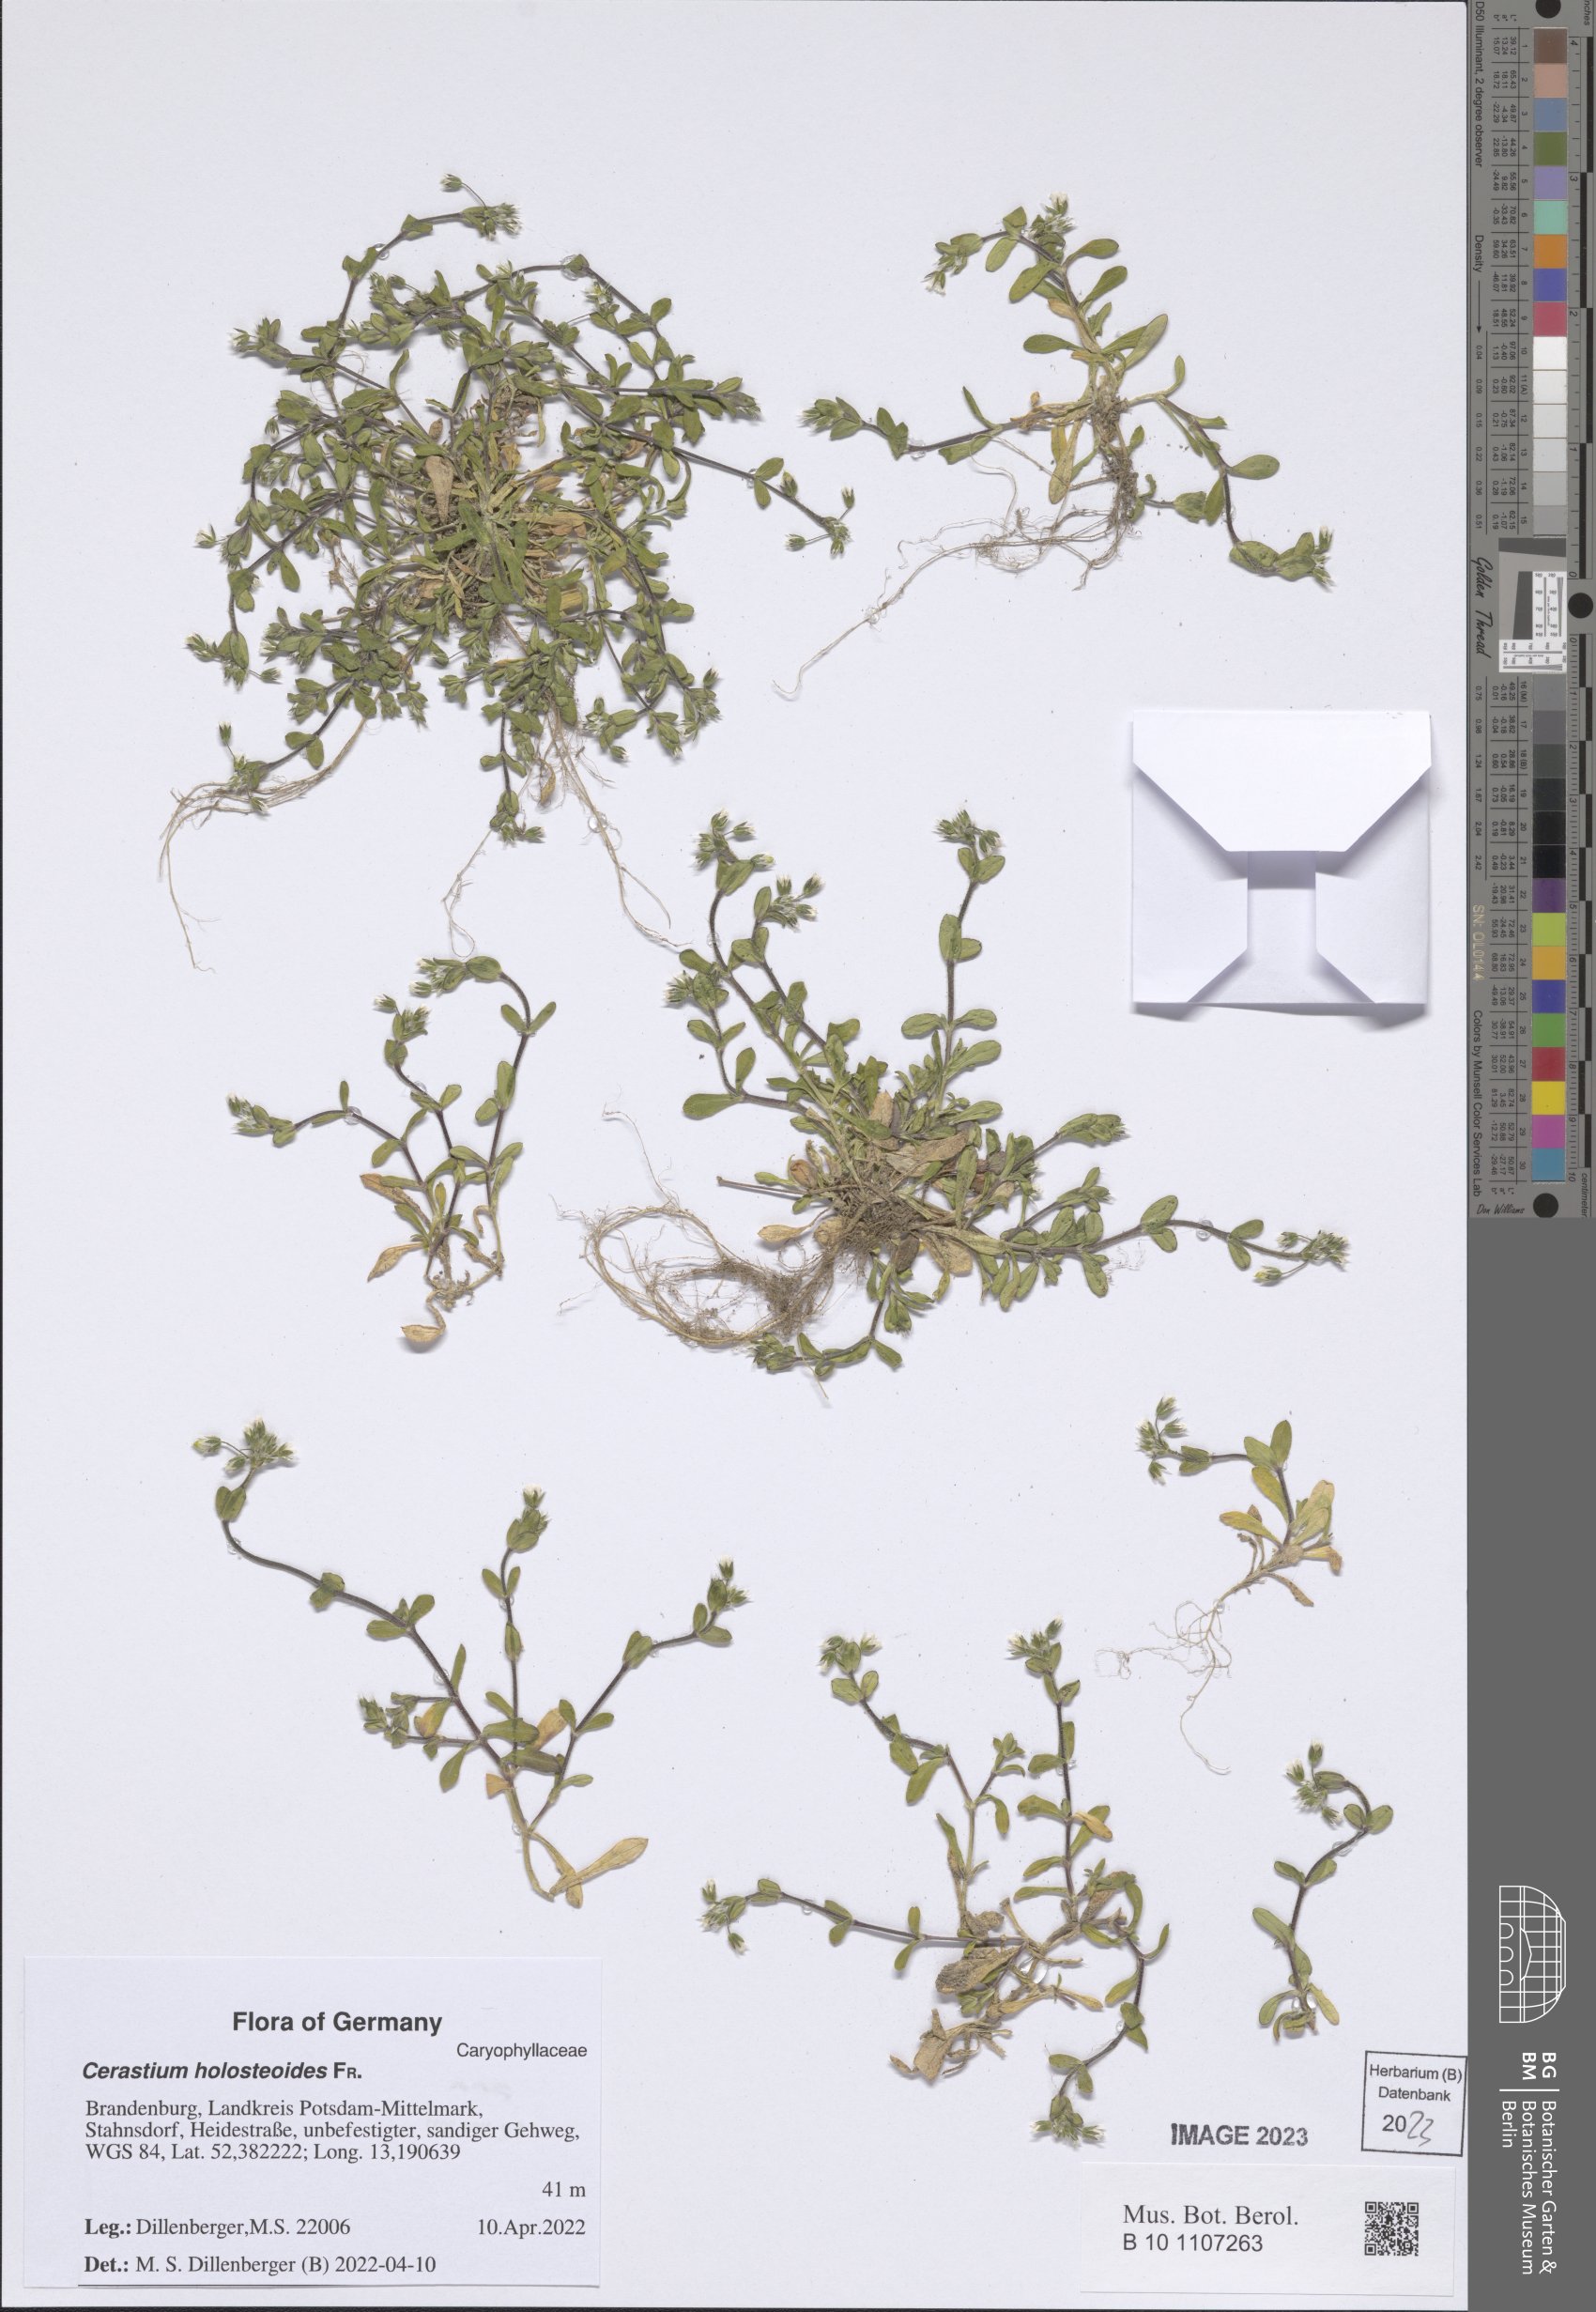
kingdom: Plantae
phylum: Tracheophyta
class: Magnoliopsida
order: Caryophyllales
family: Caryophyllaceae
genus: Cerastium
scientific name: Cerastium holosteoides
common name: Big chickweed
